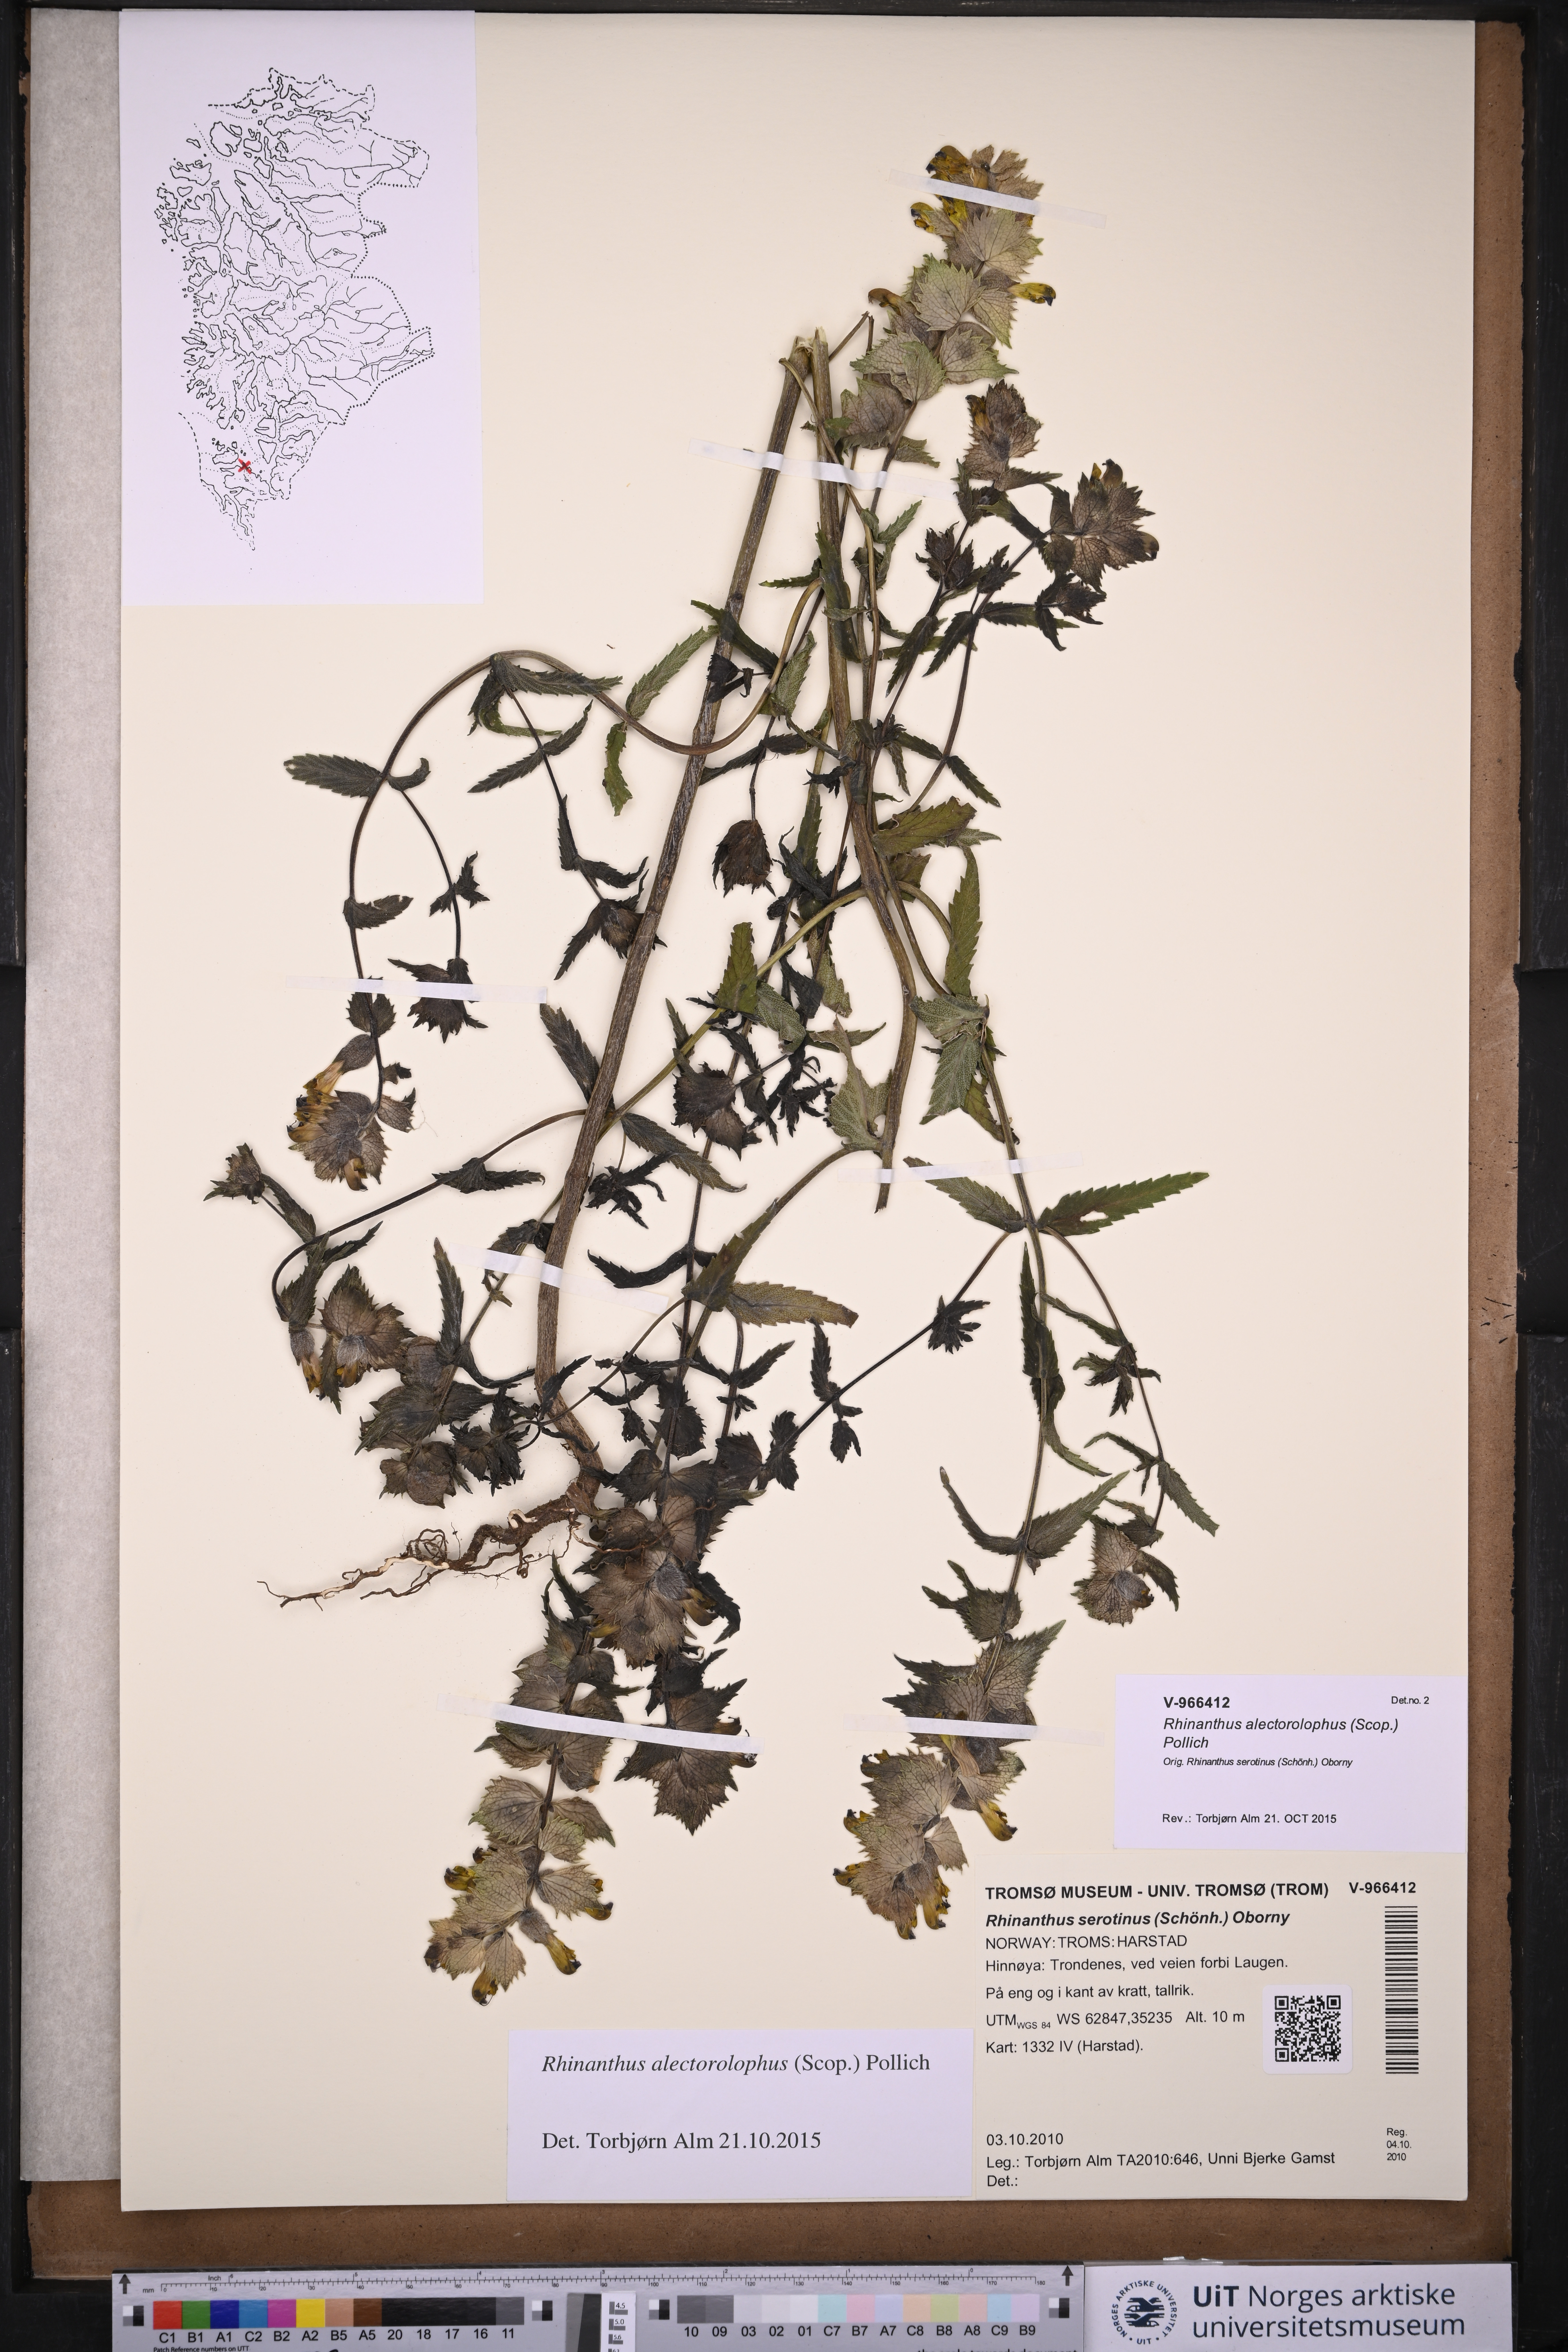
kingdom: Plantae
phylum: Tracheophyta
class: Magnoliopsida
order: Lamiales
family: Orobanchaceae
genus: Rhinanthus
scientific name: Rhinanthus alectorolophus
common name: Greater yellow-rattle
